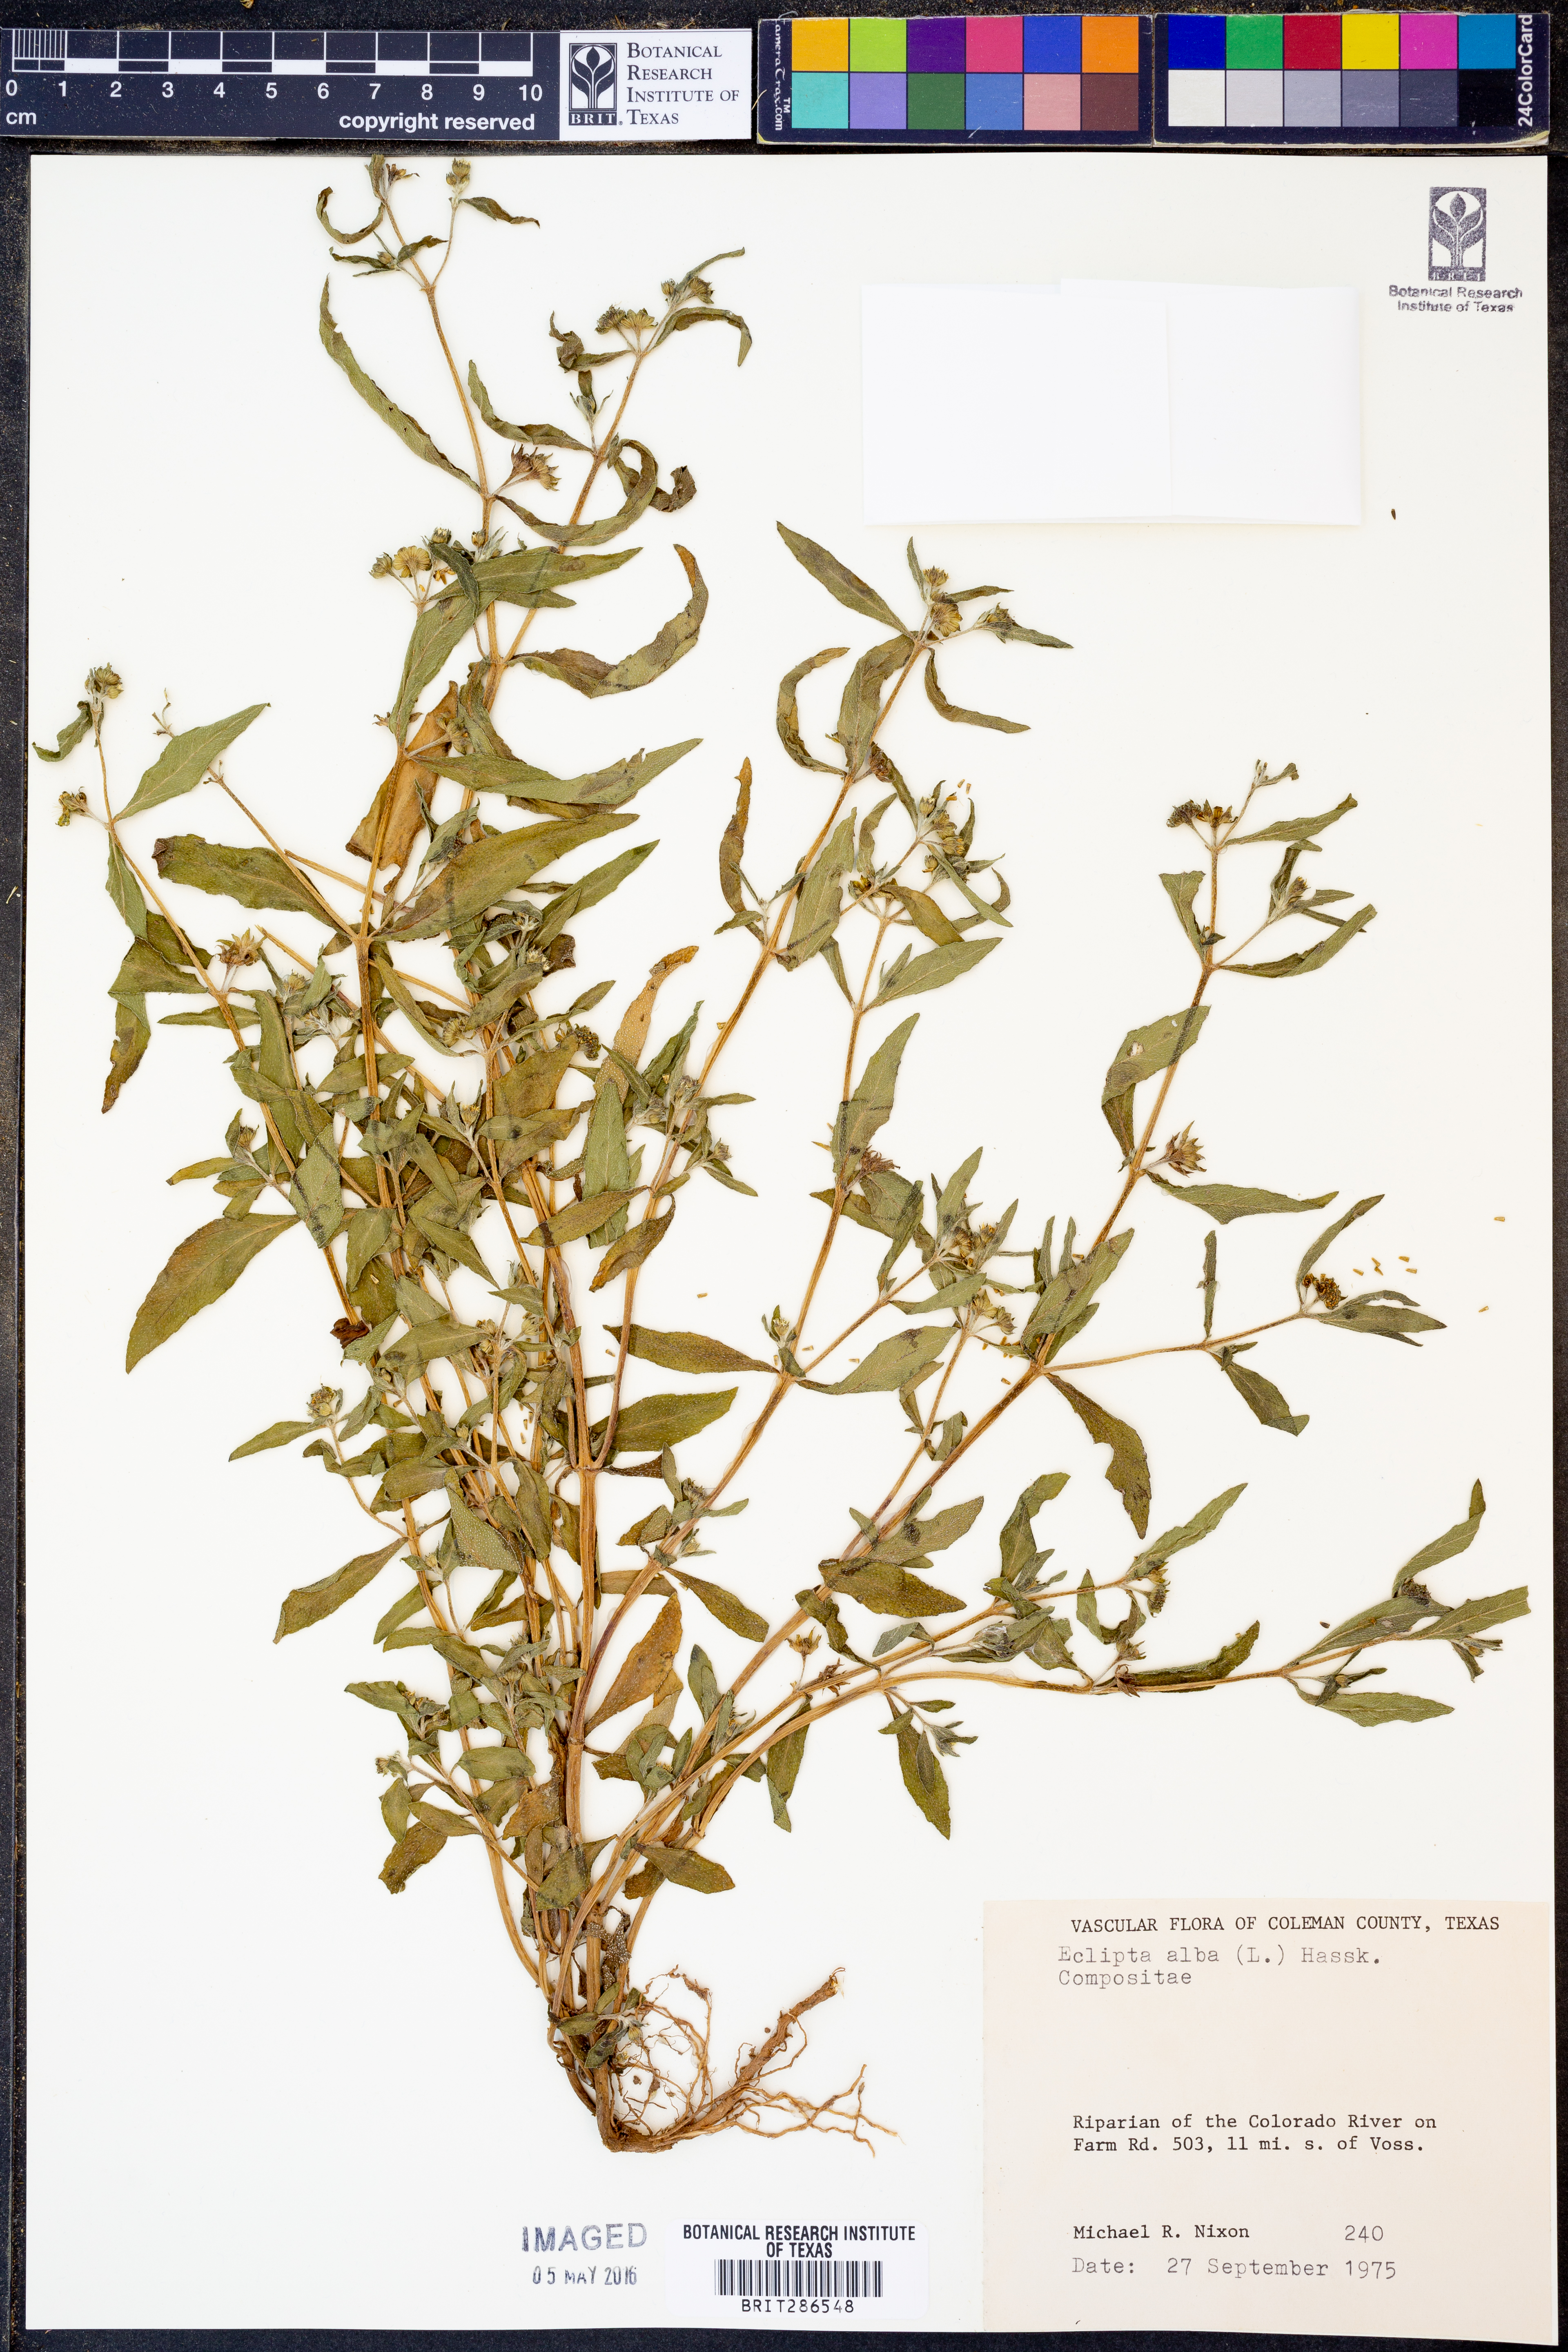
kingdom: Plantae
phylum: Tracheophyta
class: Magnoliopsida
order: Asterales
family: Asteraceae
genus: Eclipta
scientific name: Eclipta alba
